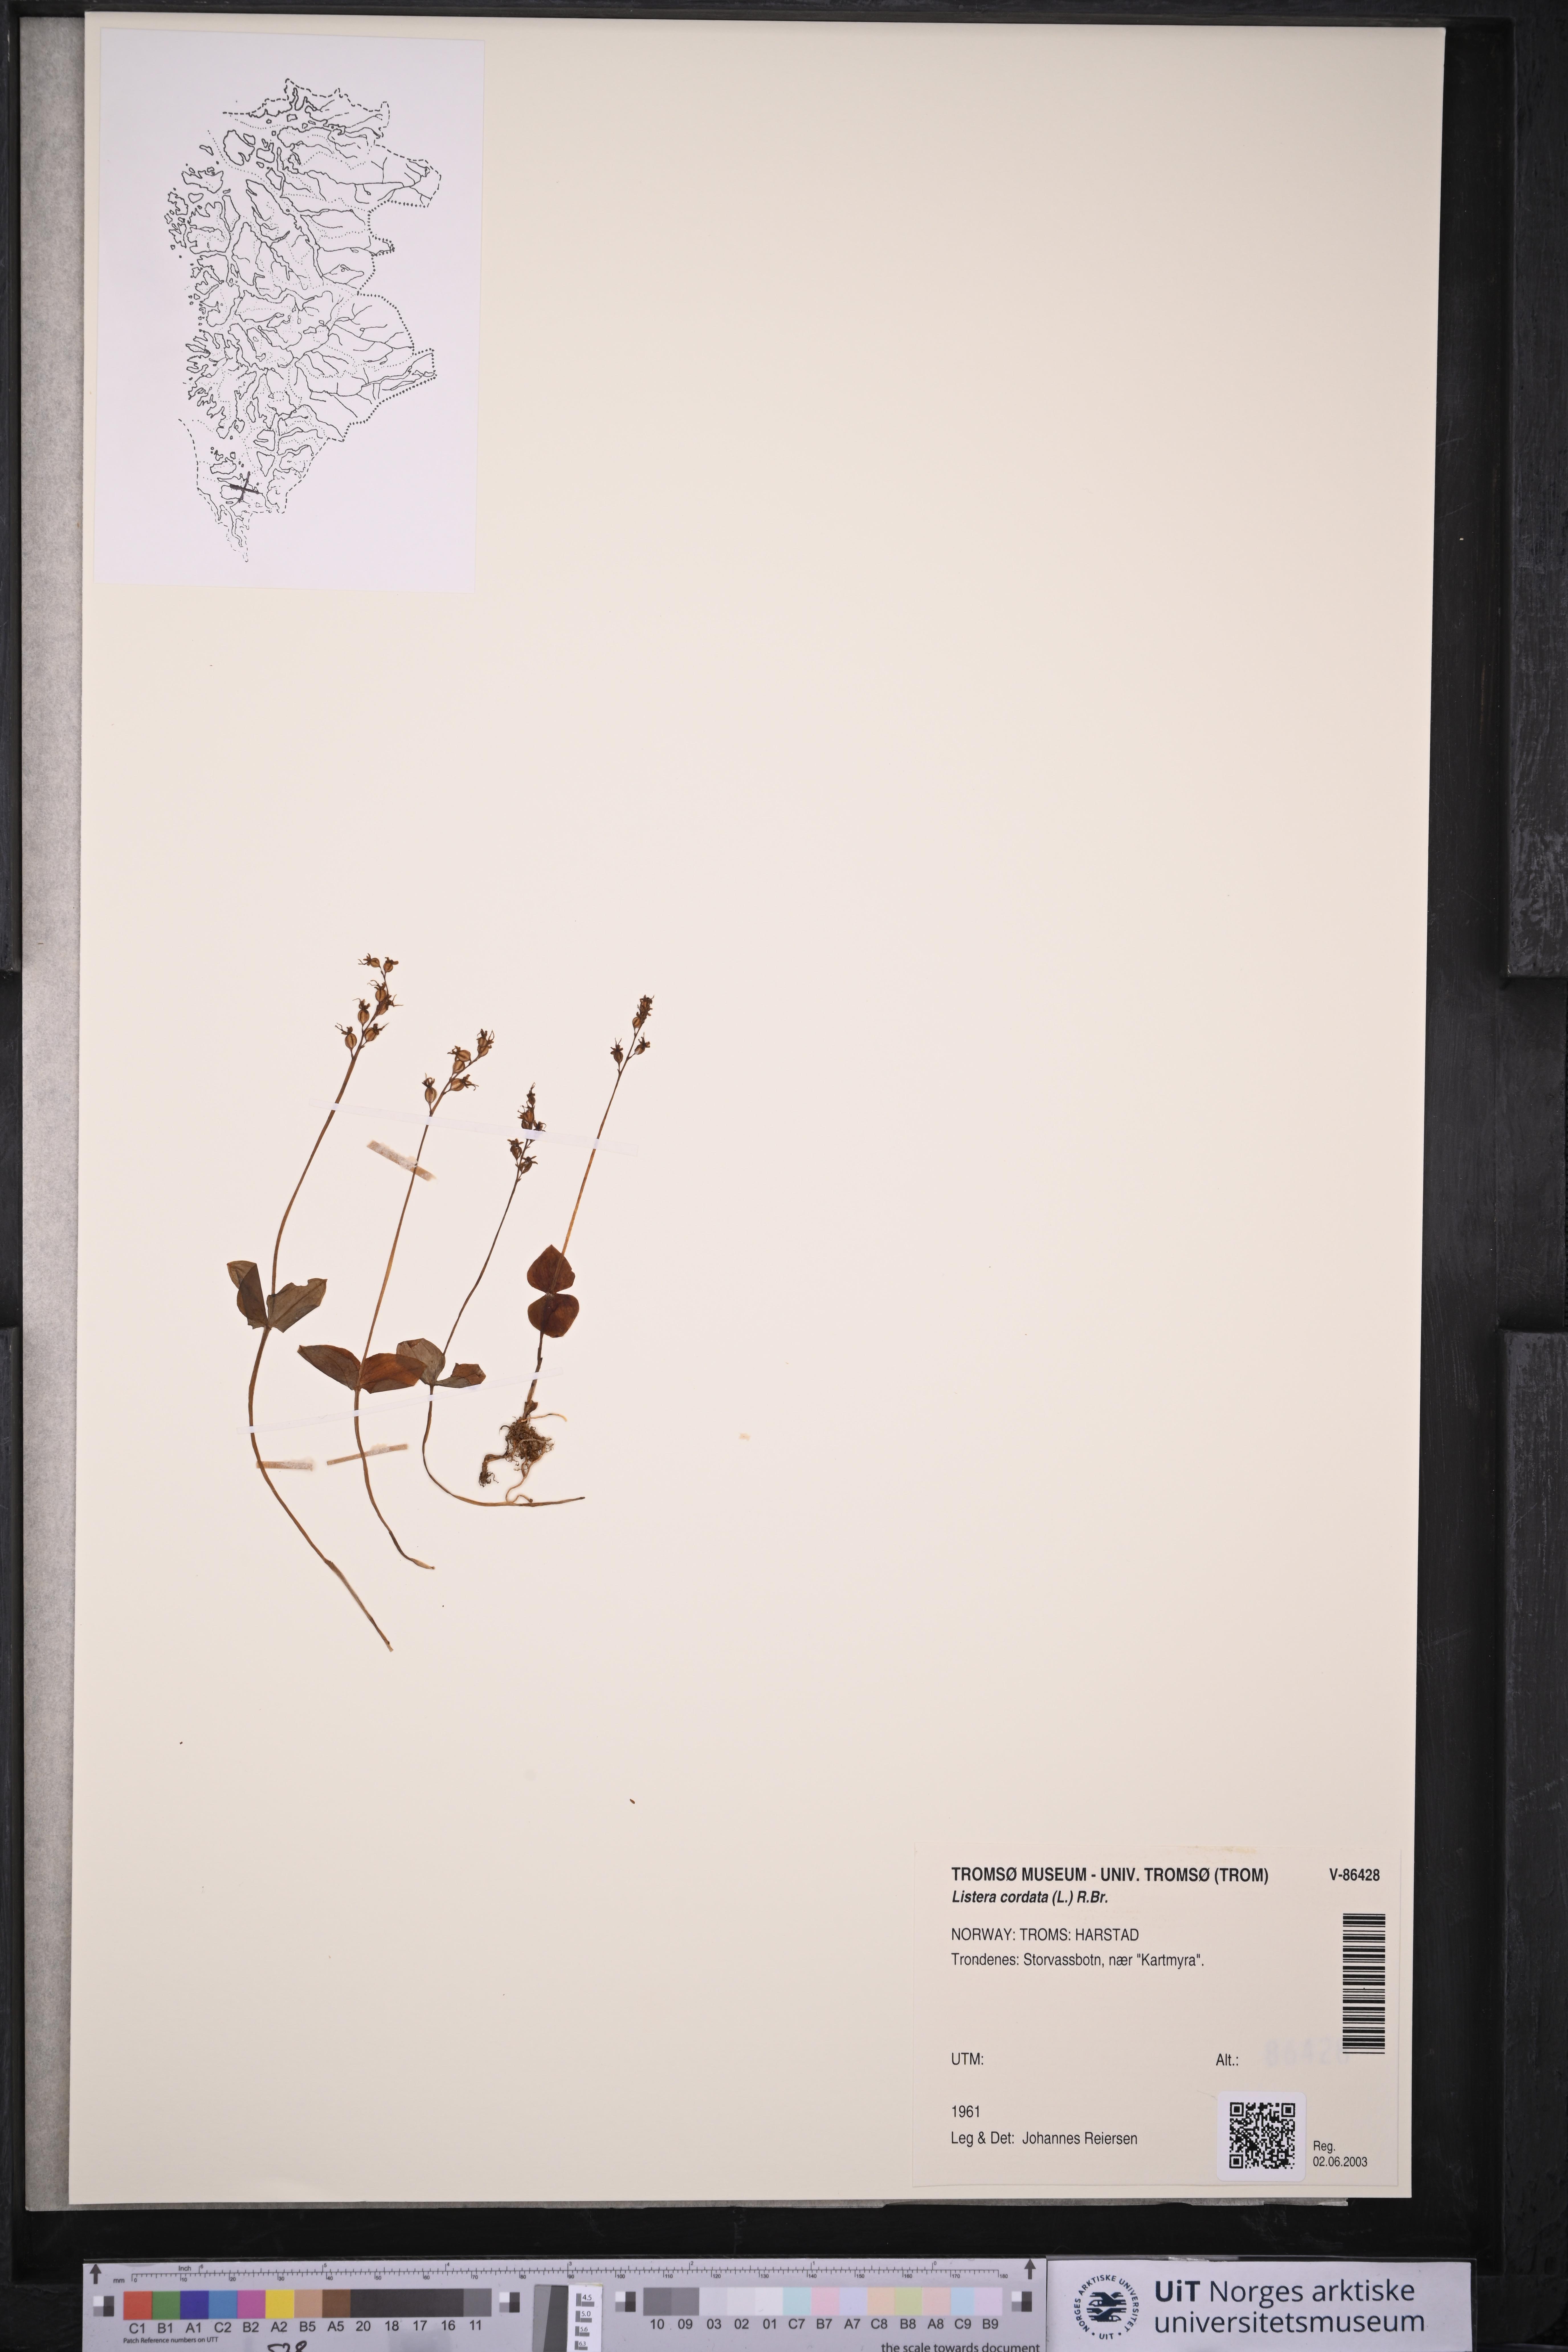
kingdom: Plantae
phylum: Tracheophyta
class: Liliopsida
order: Asparagales
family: Orchidaceae
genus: Neottia
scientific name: Neottia cordata
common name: Lesser twayblade
